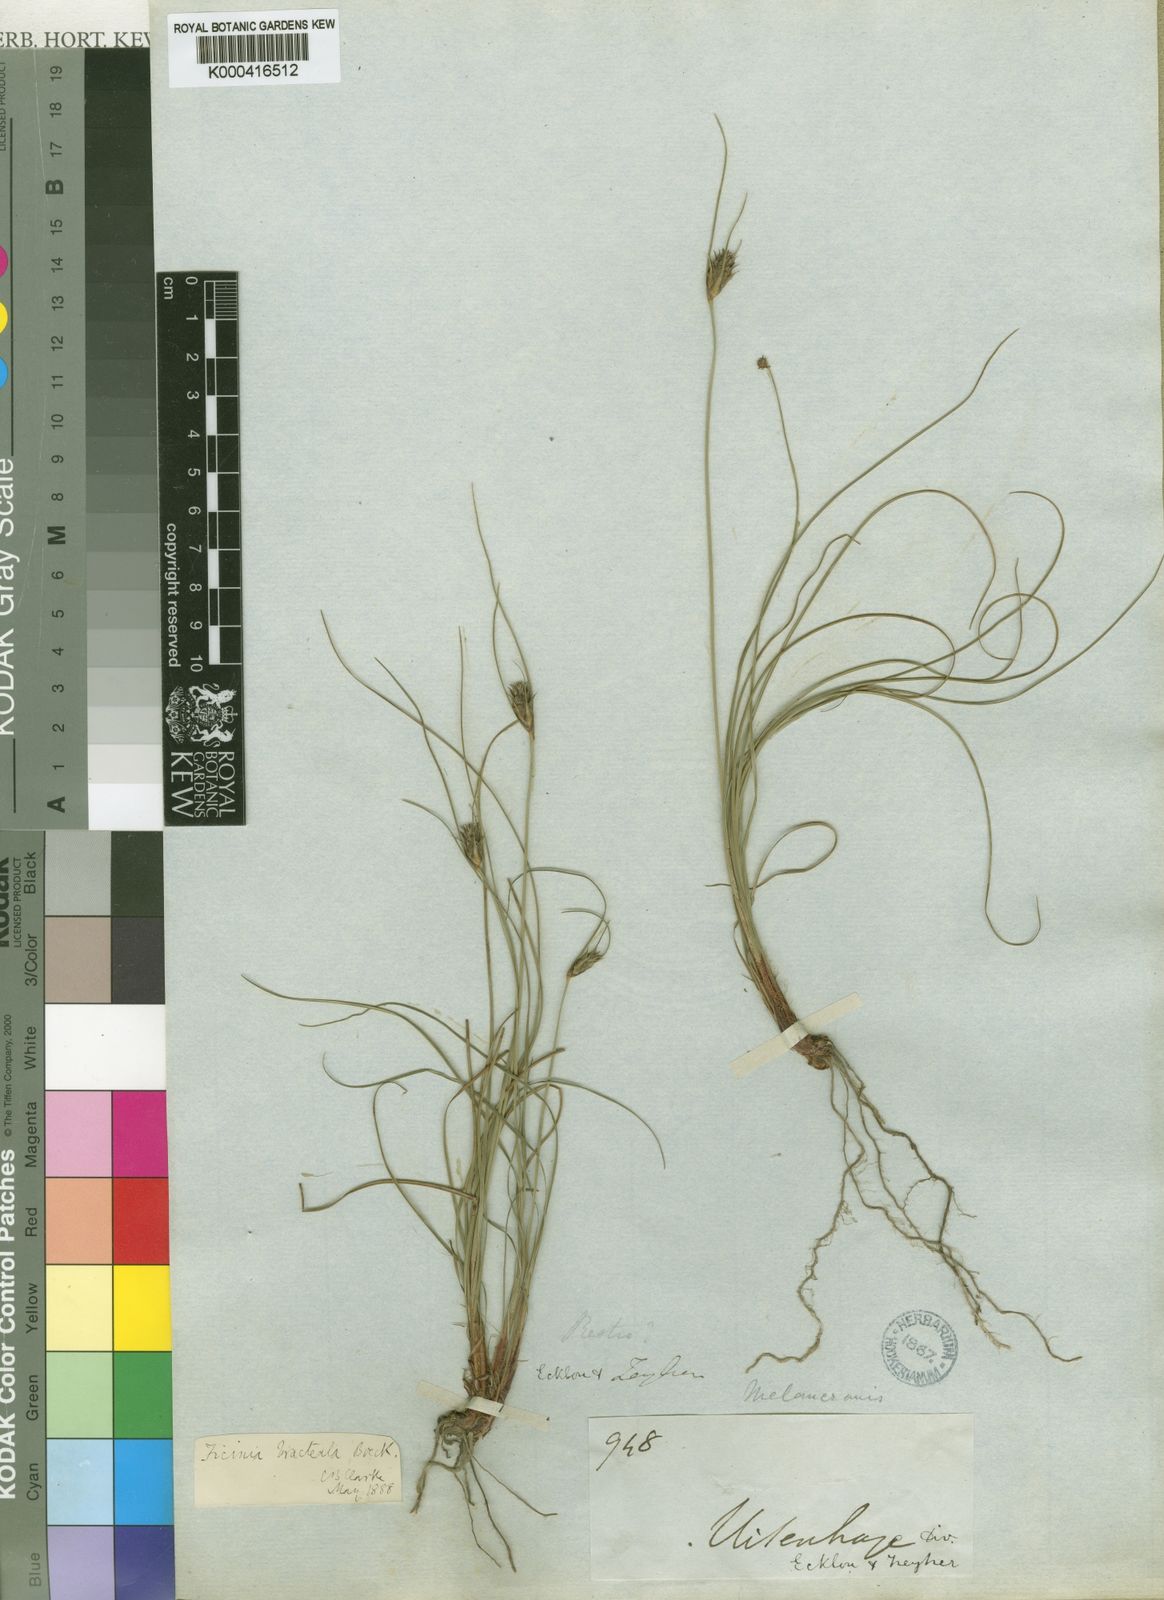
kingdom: Plantae
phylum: Tracheophyta
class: Liliopsida
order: Poales
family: Cyperaceae
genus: Ficinia
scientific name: Ficinia nigrescens
